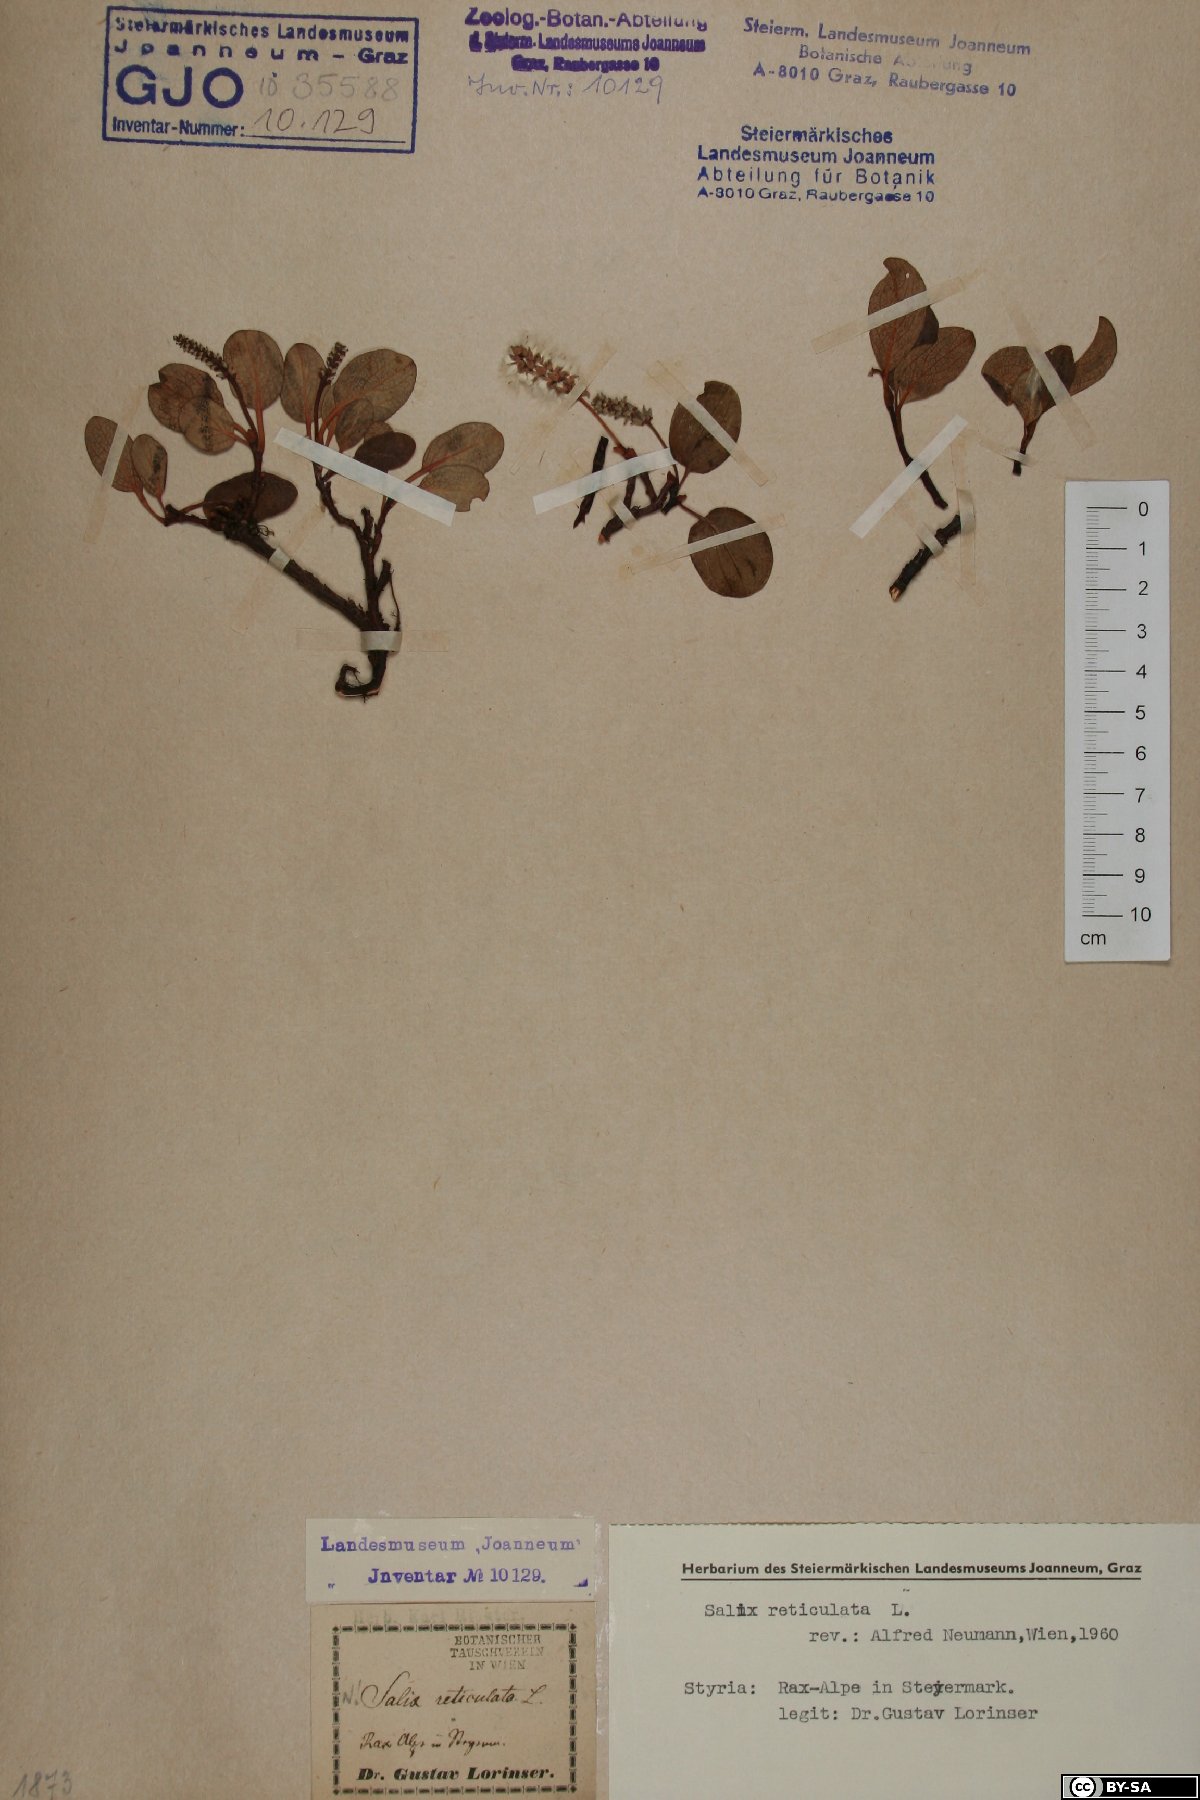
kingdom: Plantae
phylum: Tracheophyta
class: Magnoliopsida
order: Malpighiales
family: Salicaceae
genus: Salix
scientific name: Salix reticulata
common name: Net-leaved willow
